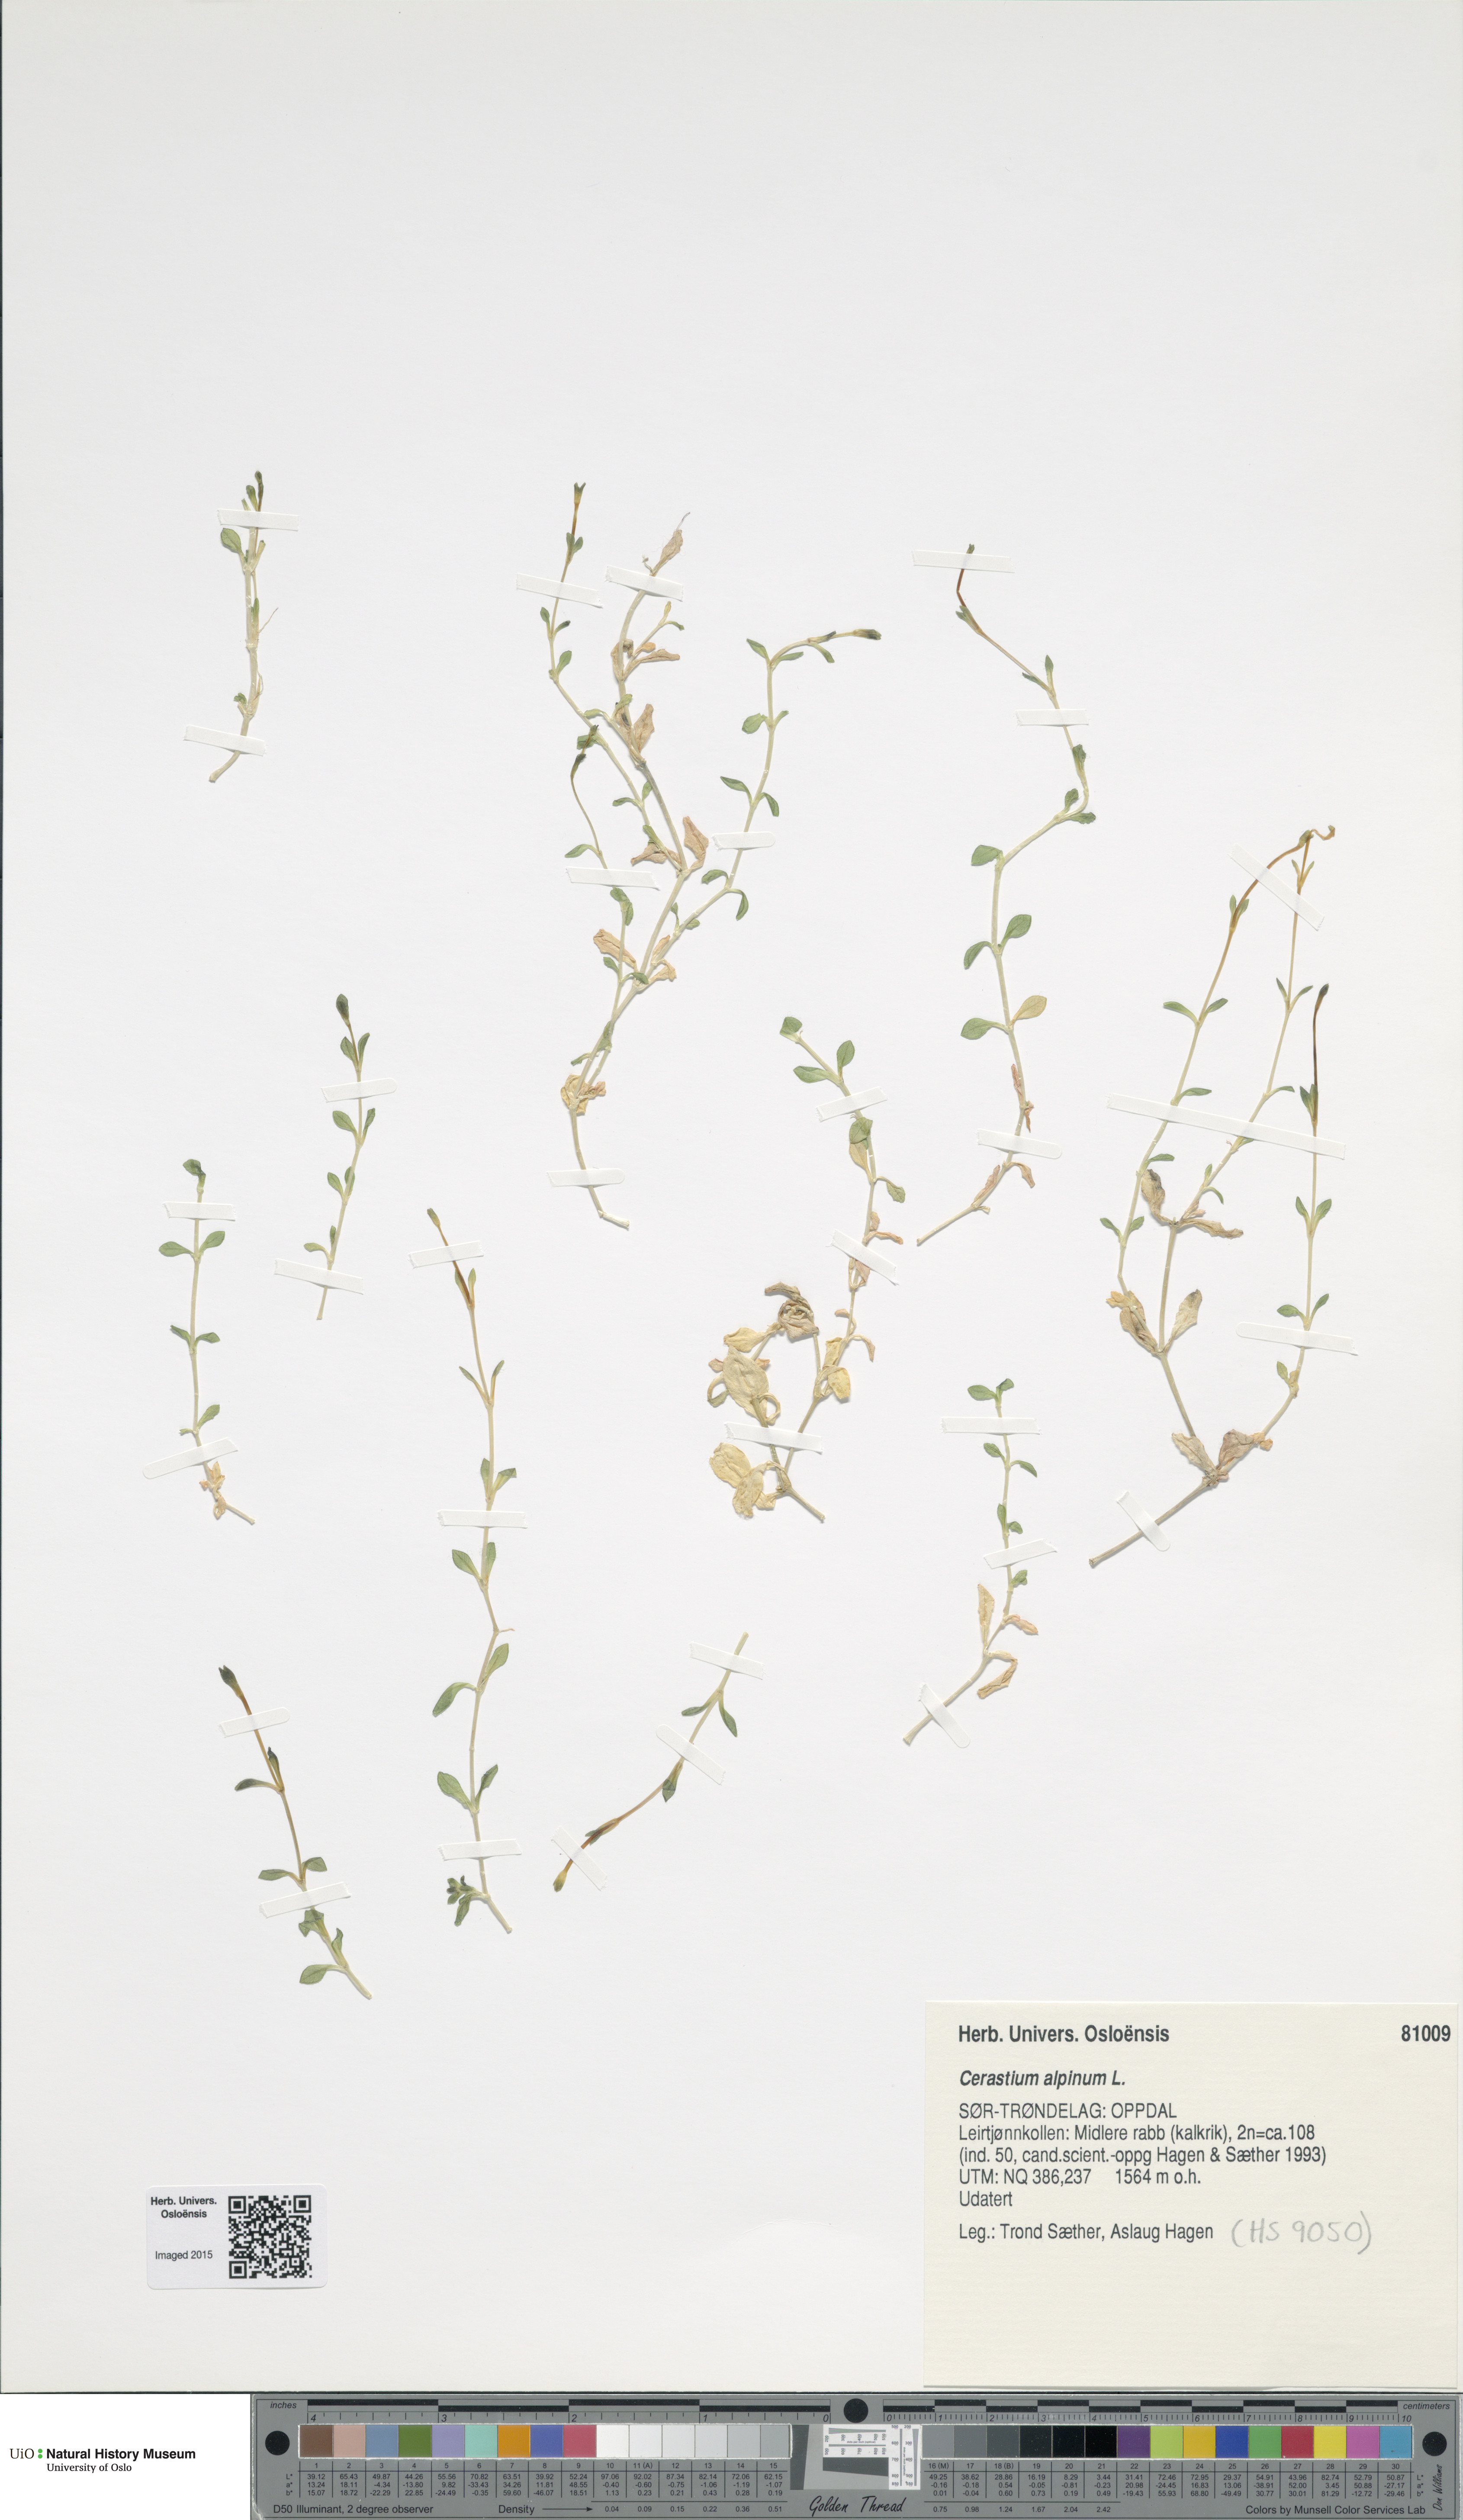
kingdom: Plantae
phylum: Tracheophyta
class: Magnoliopsida
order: Caryophyllales
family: Caryophyllaceae
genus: Cerastium
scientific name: Cerastium alpinum
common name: Alpine mouse-ear
